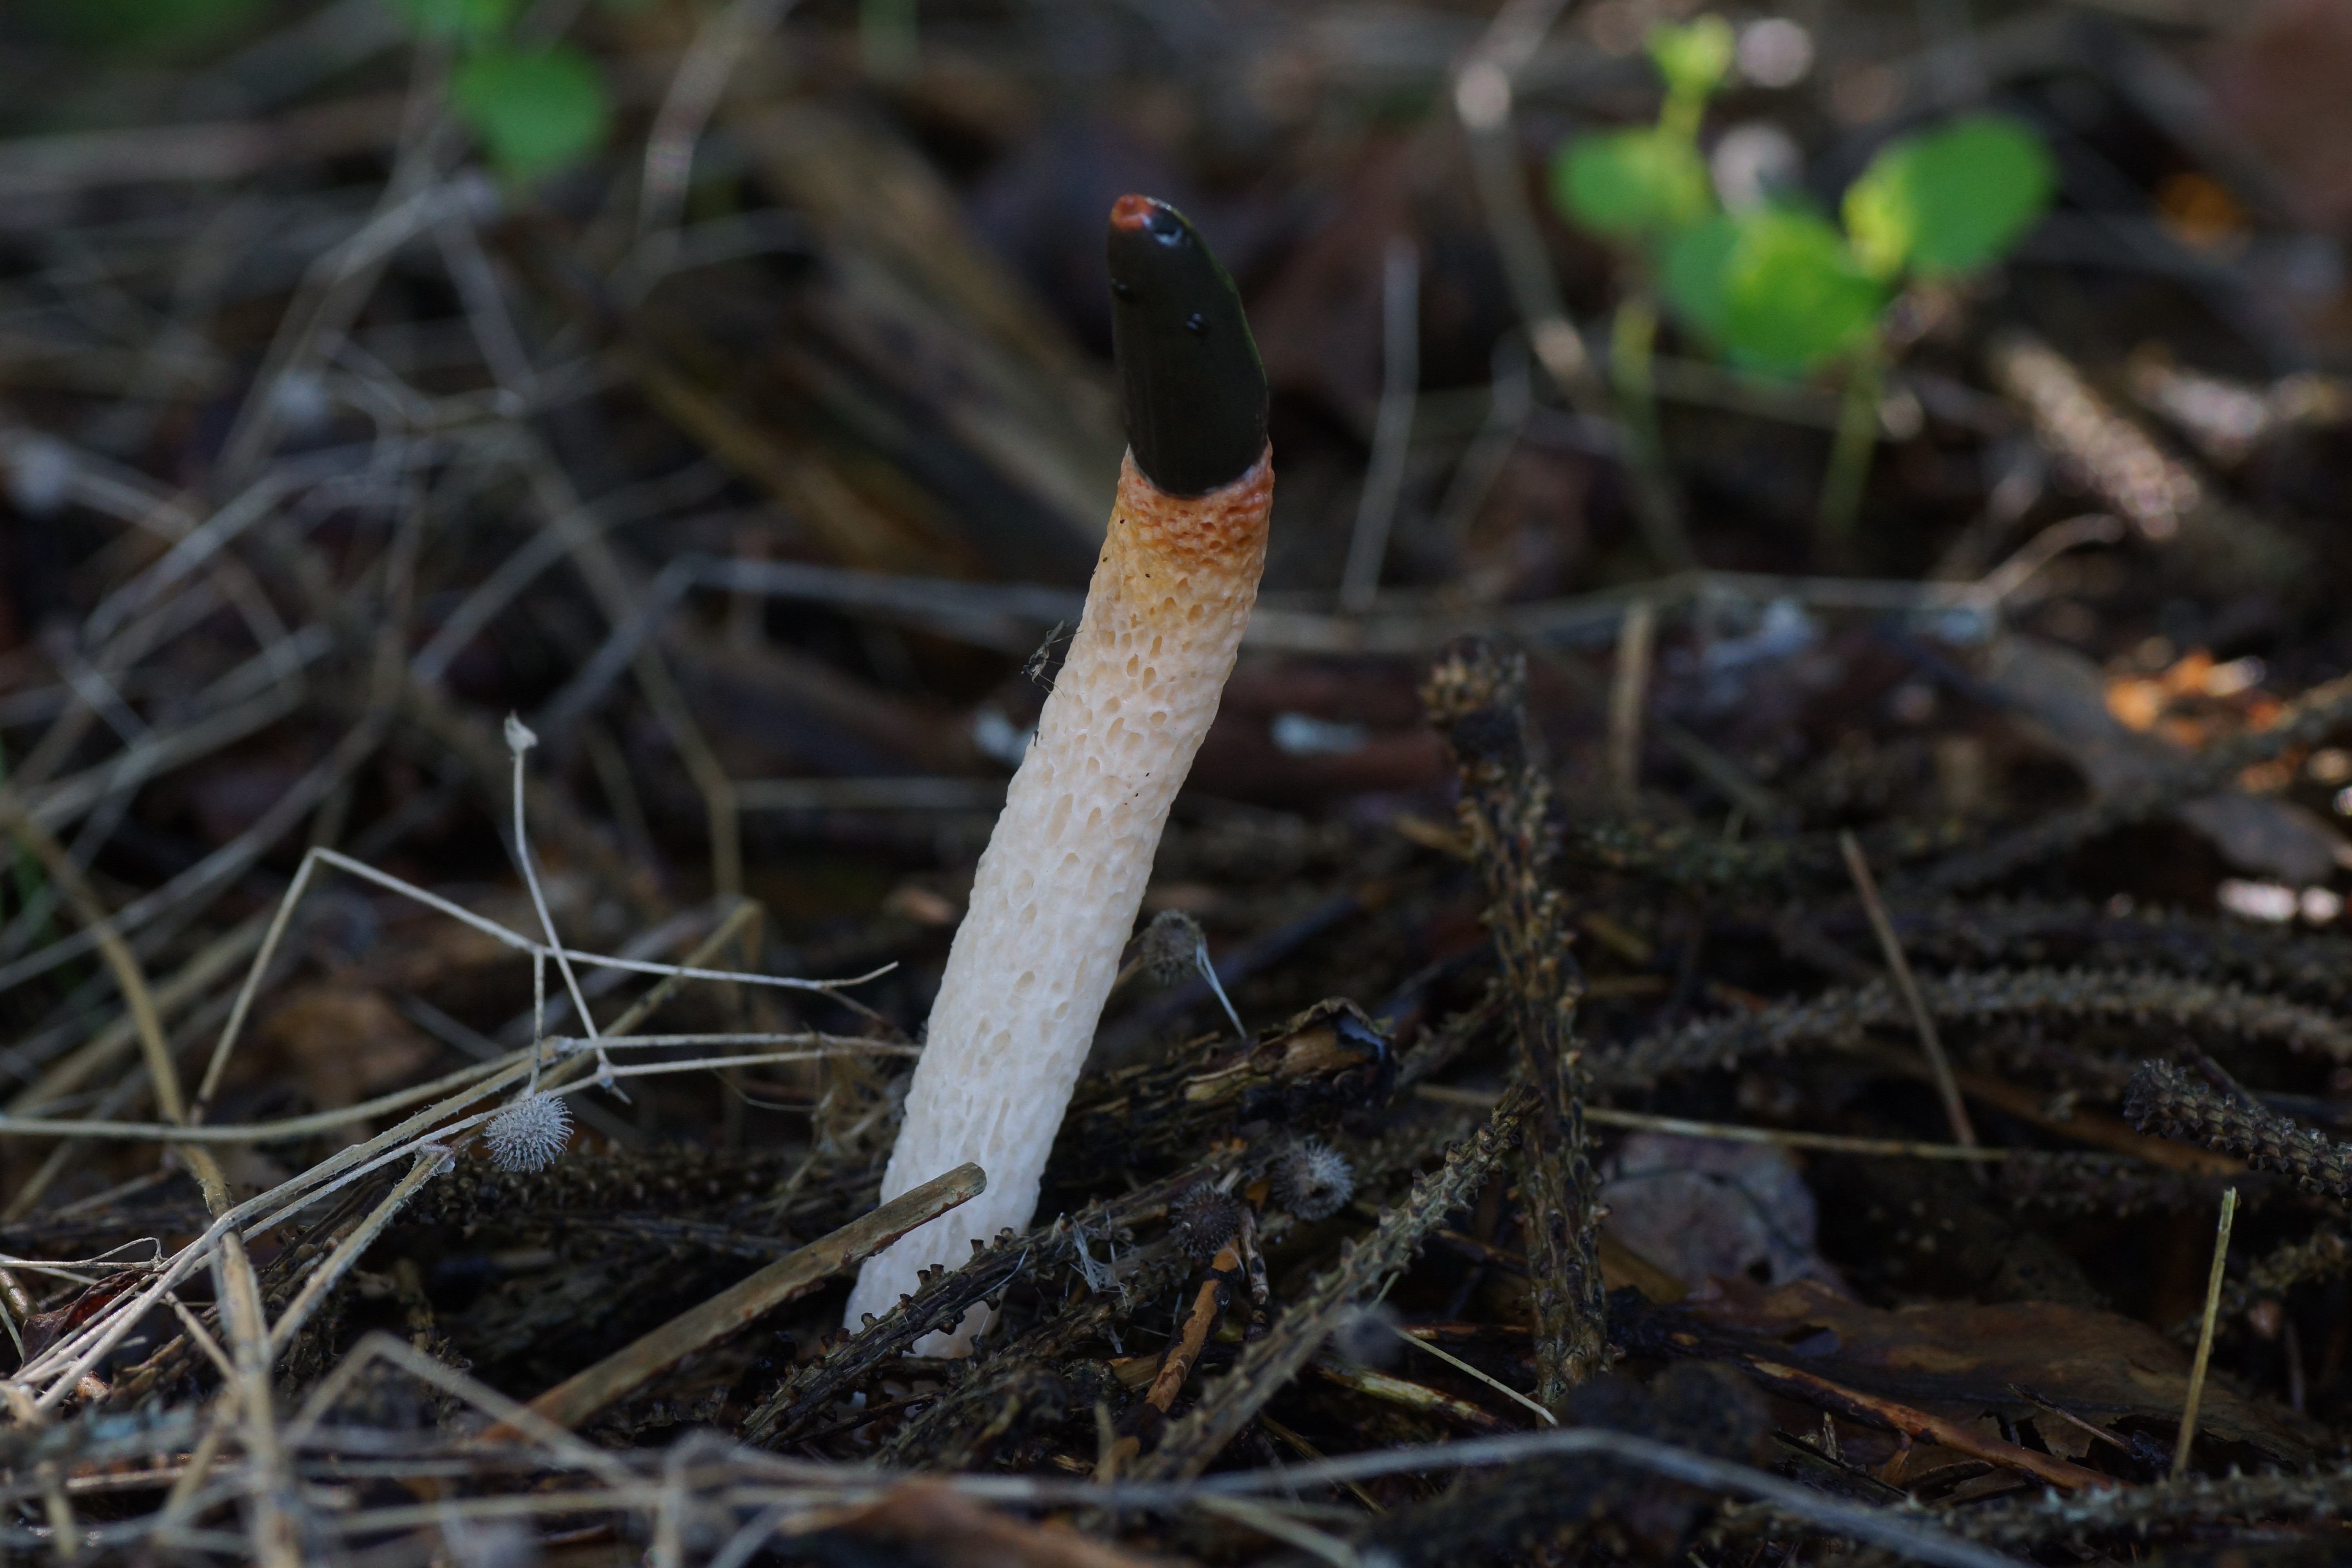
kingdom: Fungi
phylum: Basidiomycota
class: Agaricomycetes
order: Phallales
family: Phallaceae
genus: Mutinus
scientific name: Mutinus caninus
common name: hunde-stinksvamp
